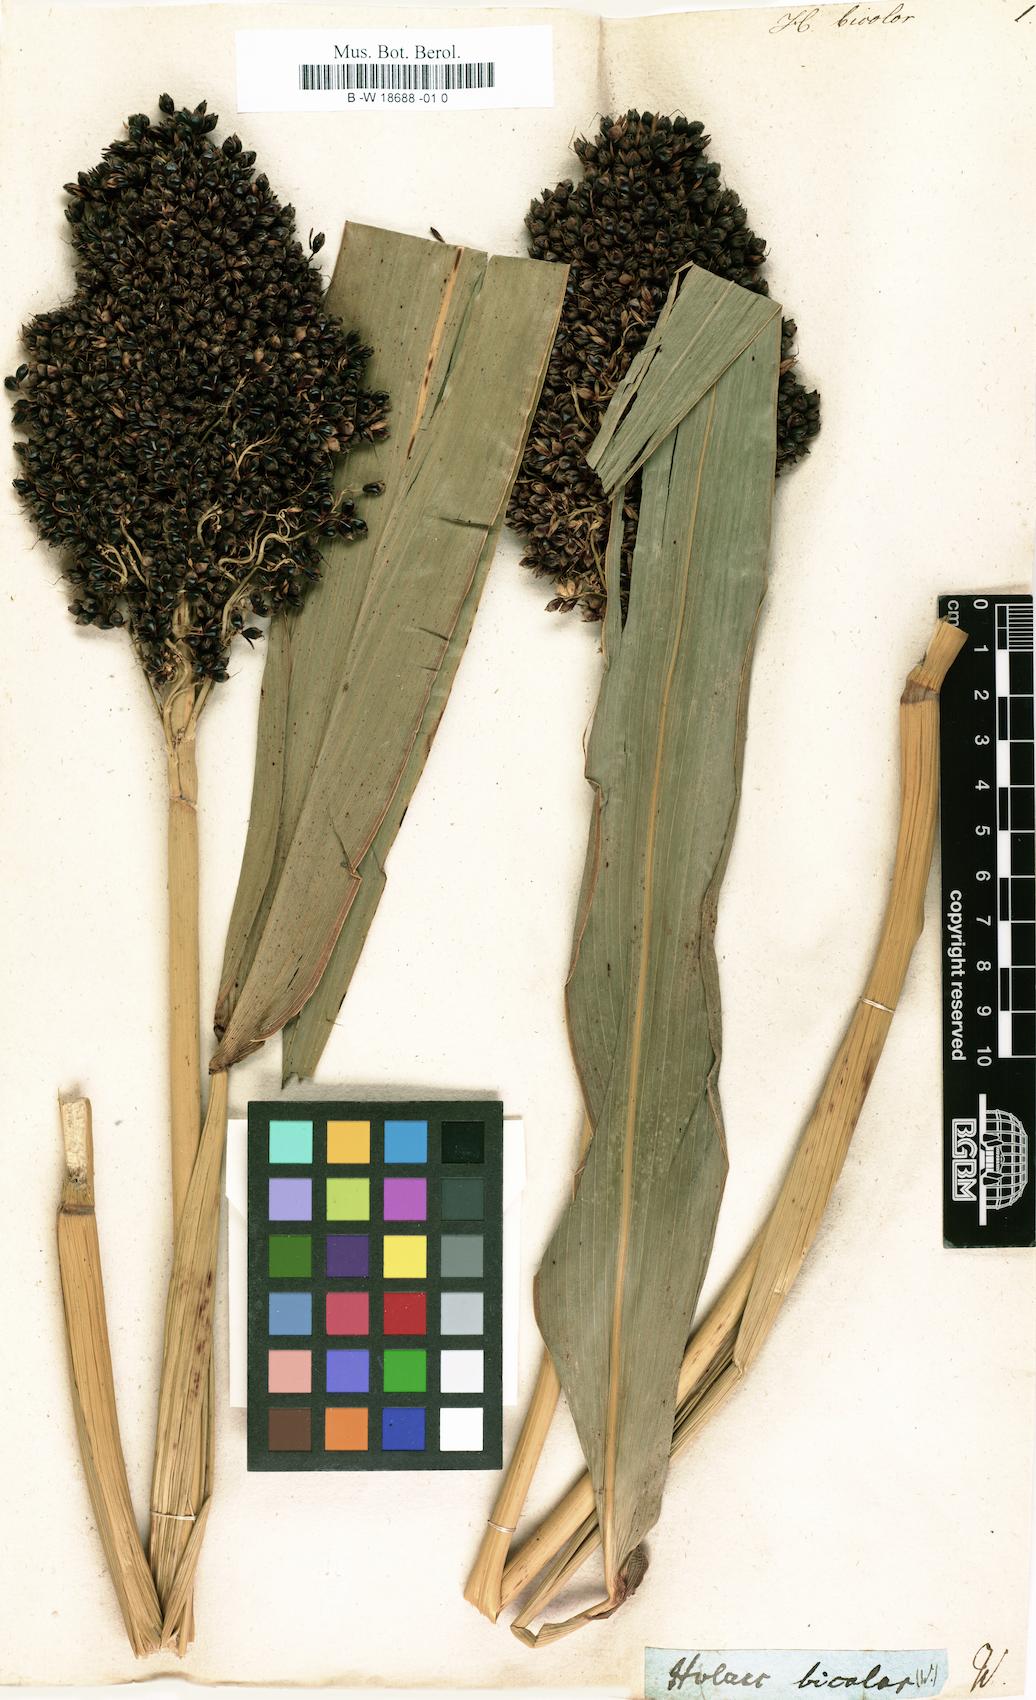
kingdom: Plantae
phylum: Tracheophyta
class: Liliopsida
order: Poales
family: Poaceae
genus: Sorghum
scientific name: Sorghum bicolor
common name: Sorghum
